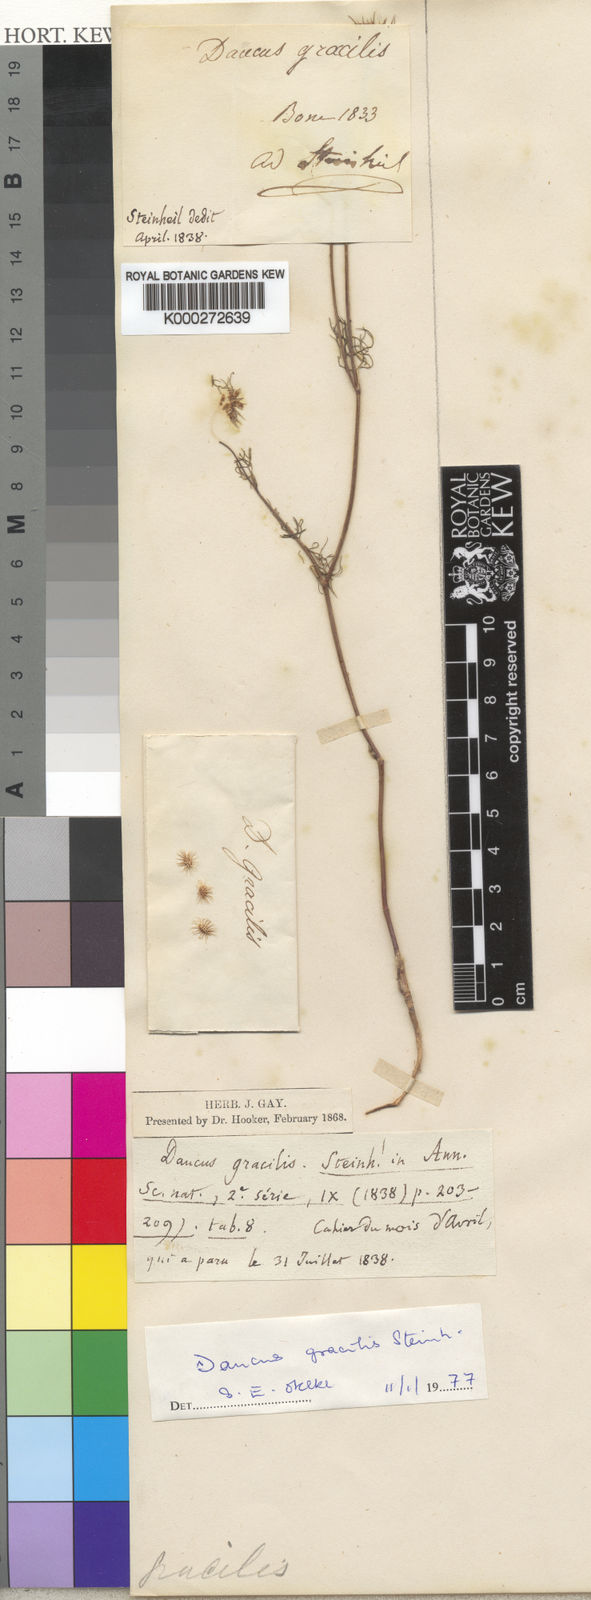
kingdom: Plantae
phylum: Tracheophyta
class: Magnoliopsida
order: Apiales
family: Apiaceae
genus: Daucus
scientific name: Daucus gracilis
